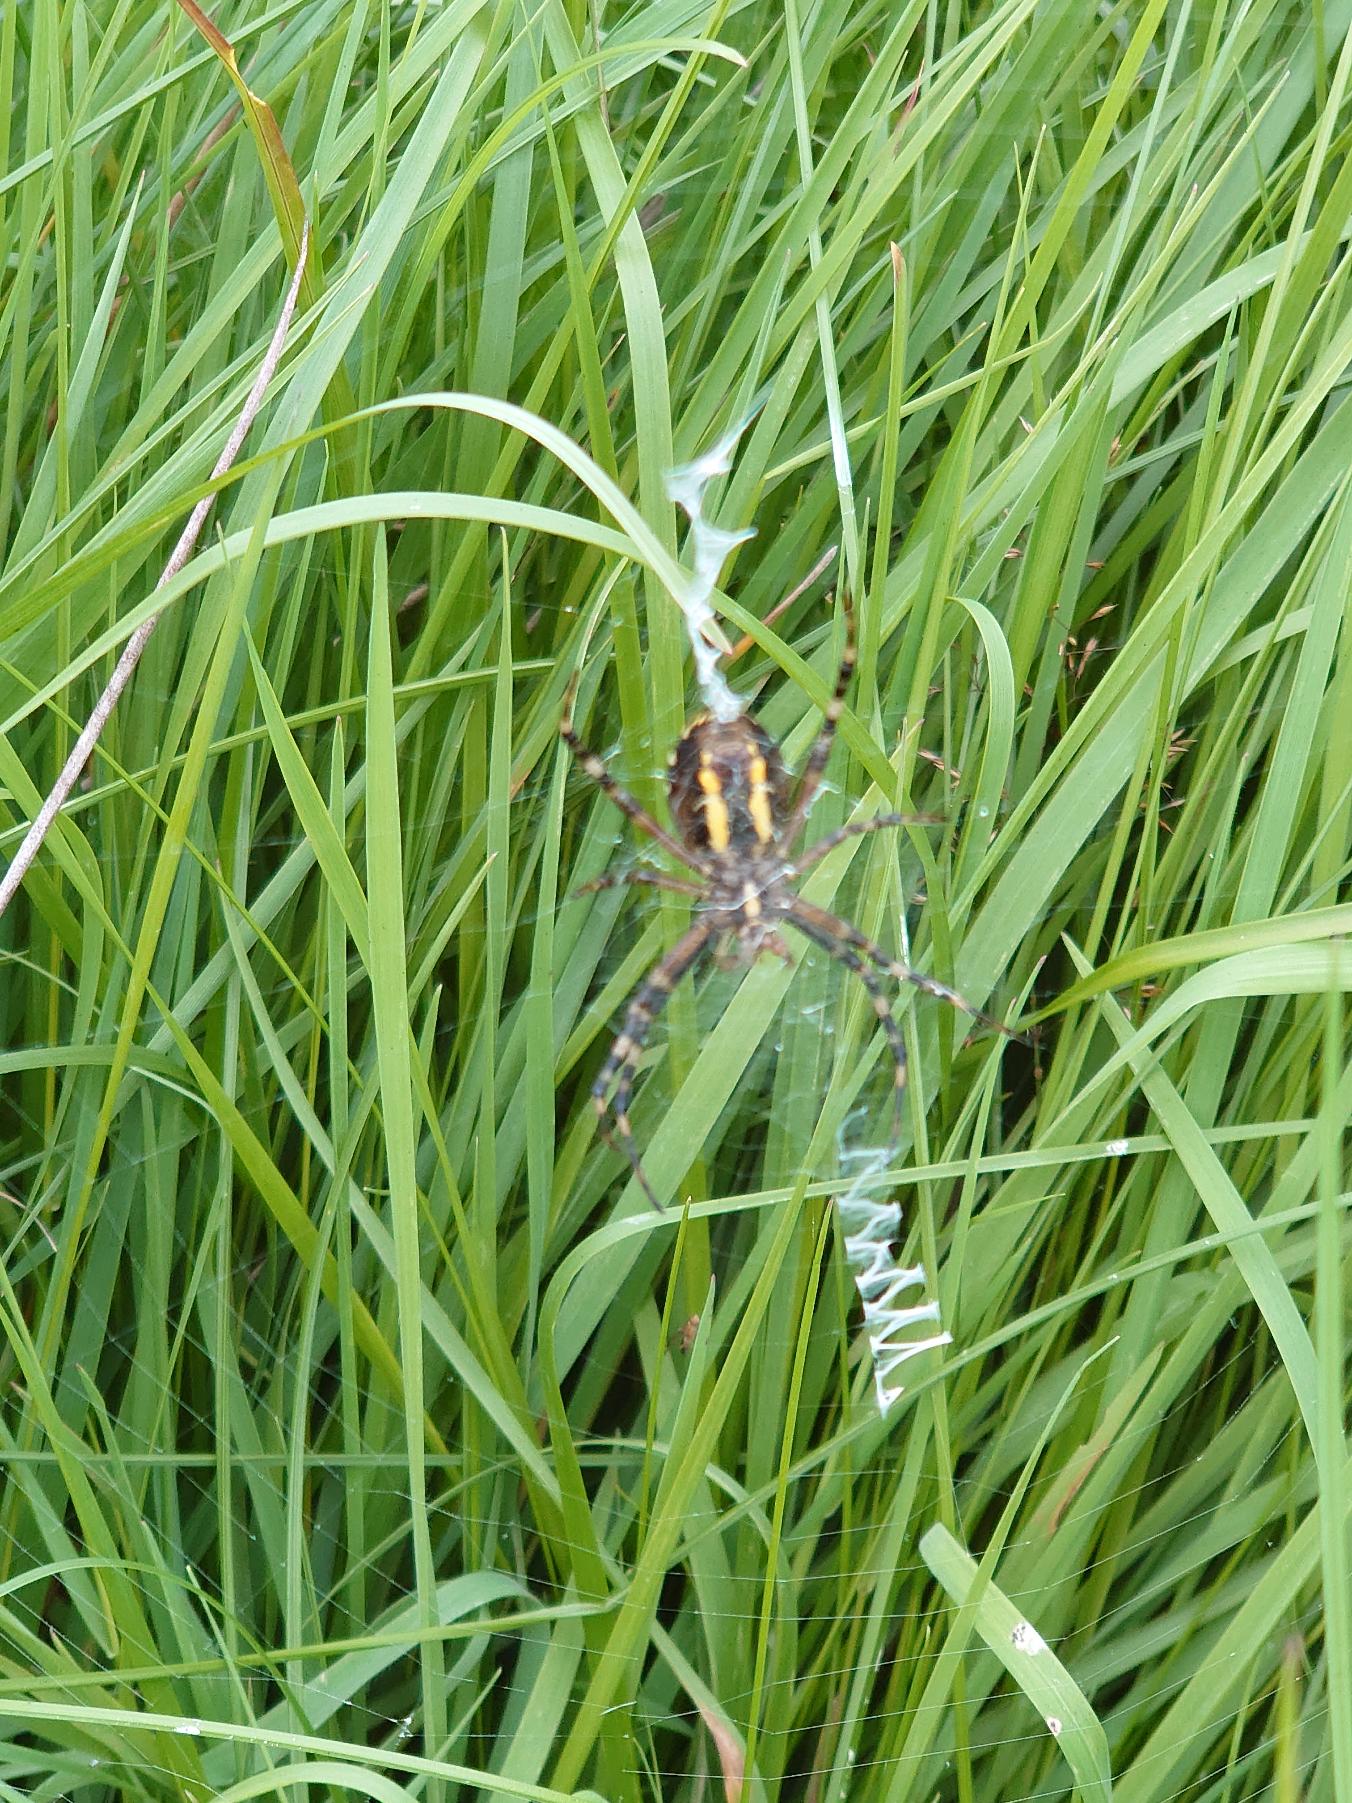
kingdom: Animalia
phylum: Arthropoda
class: Arachnida
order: Araneae
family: Araneidae
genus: Argiope
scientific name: Argiope bruennichi
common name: Hvepseedderkop
